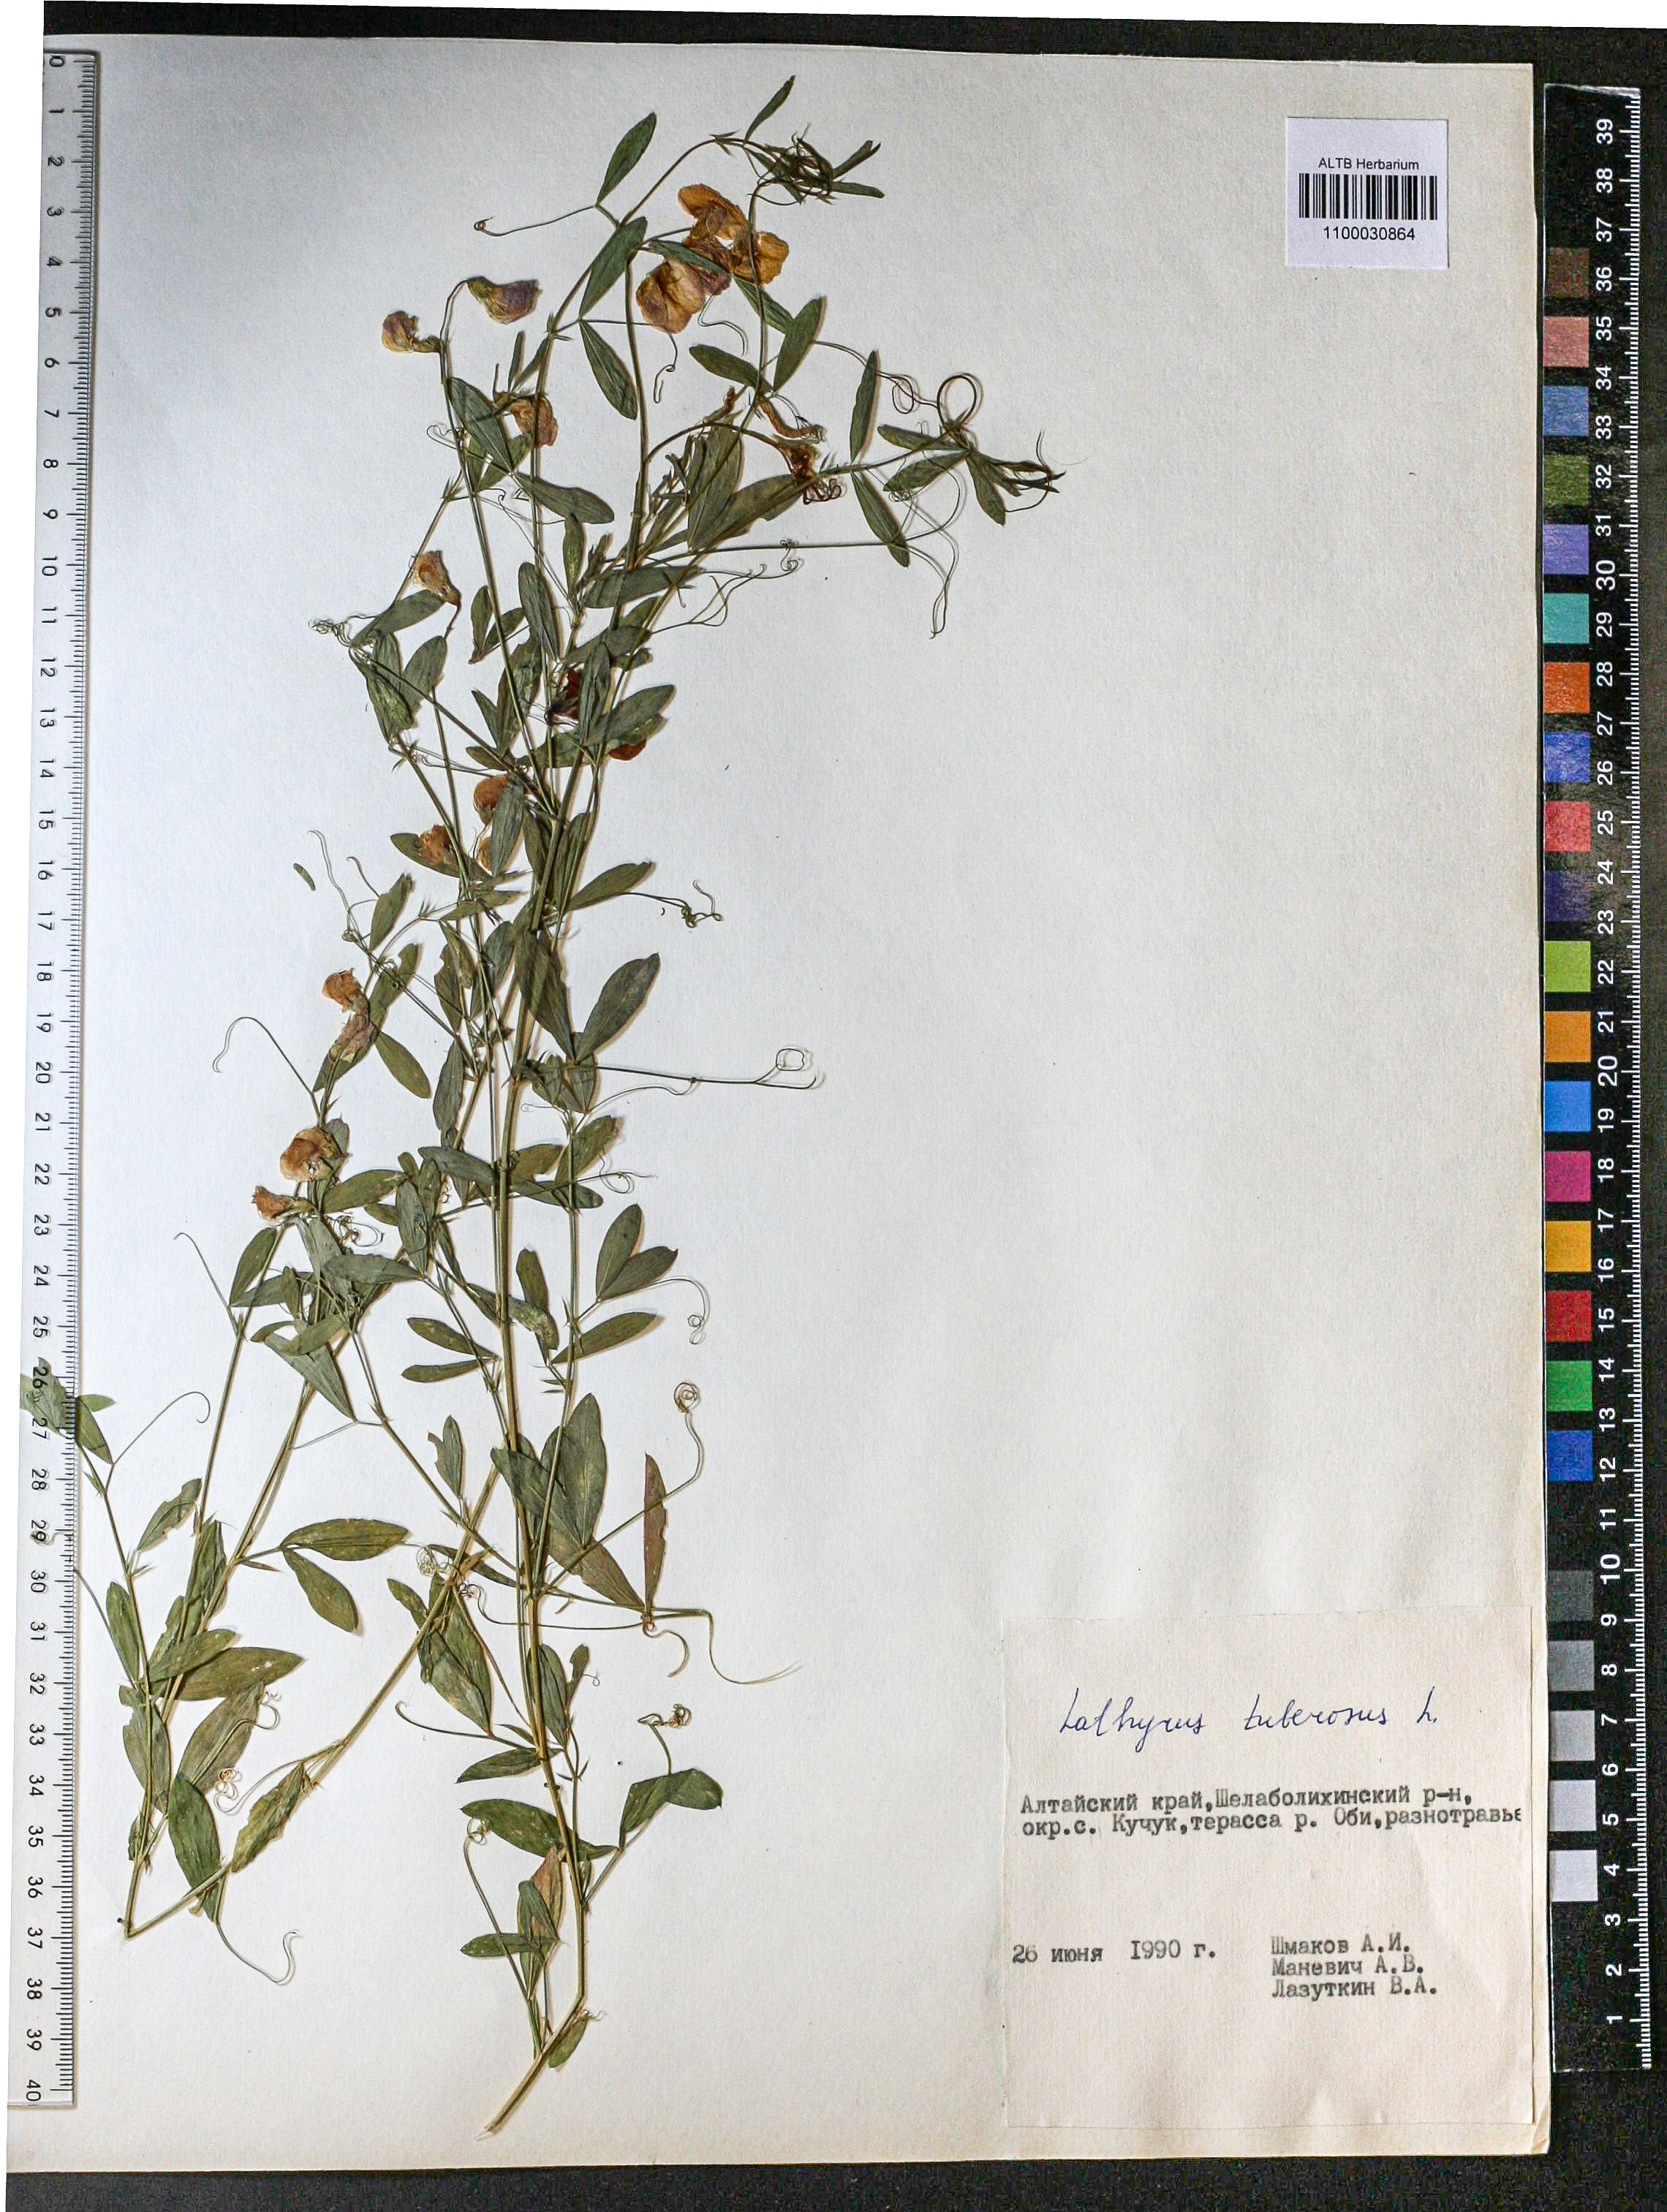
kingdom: Plantae
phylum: Tracheophyta
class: Magnoliopsida
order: Fabales
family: Fabaceae
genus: Lathyrus
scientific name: Lathyrus tuberosus
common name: Tuberous pea
